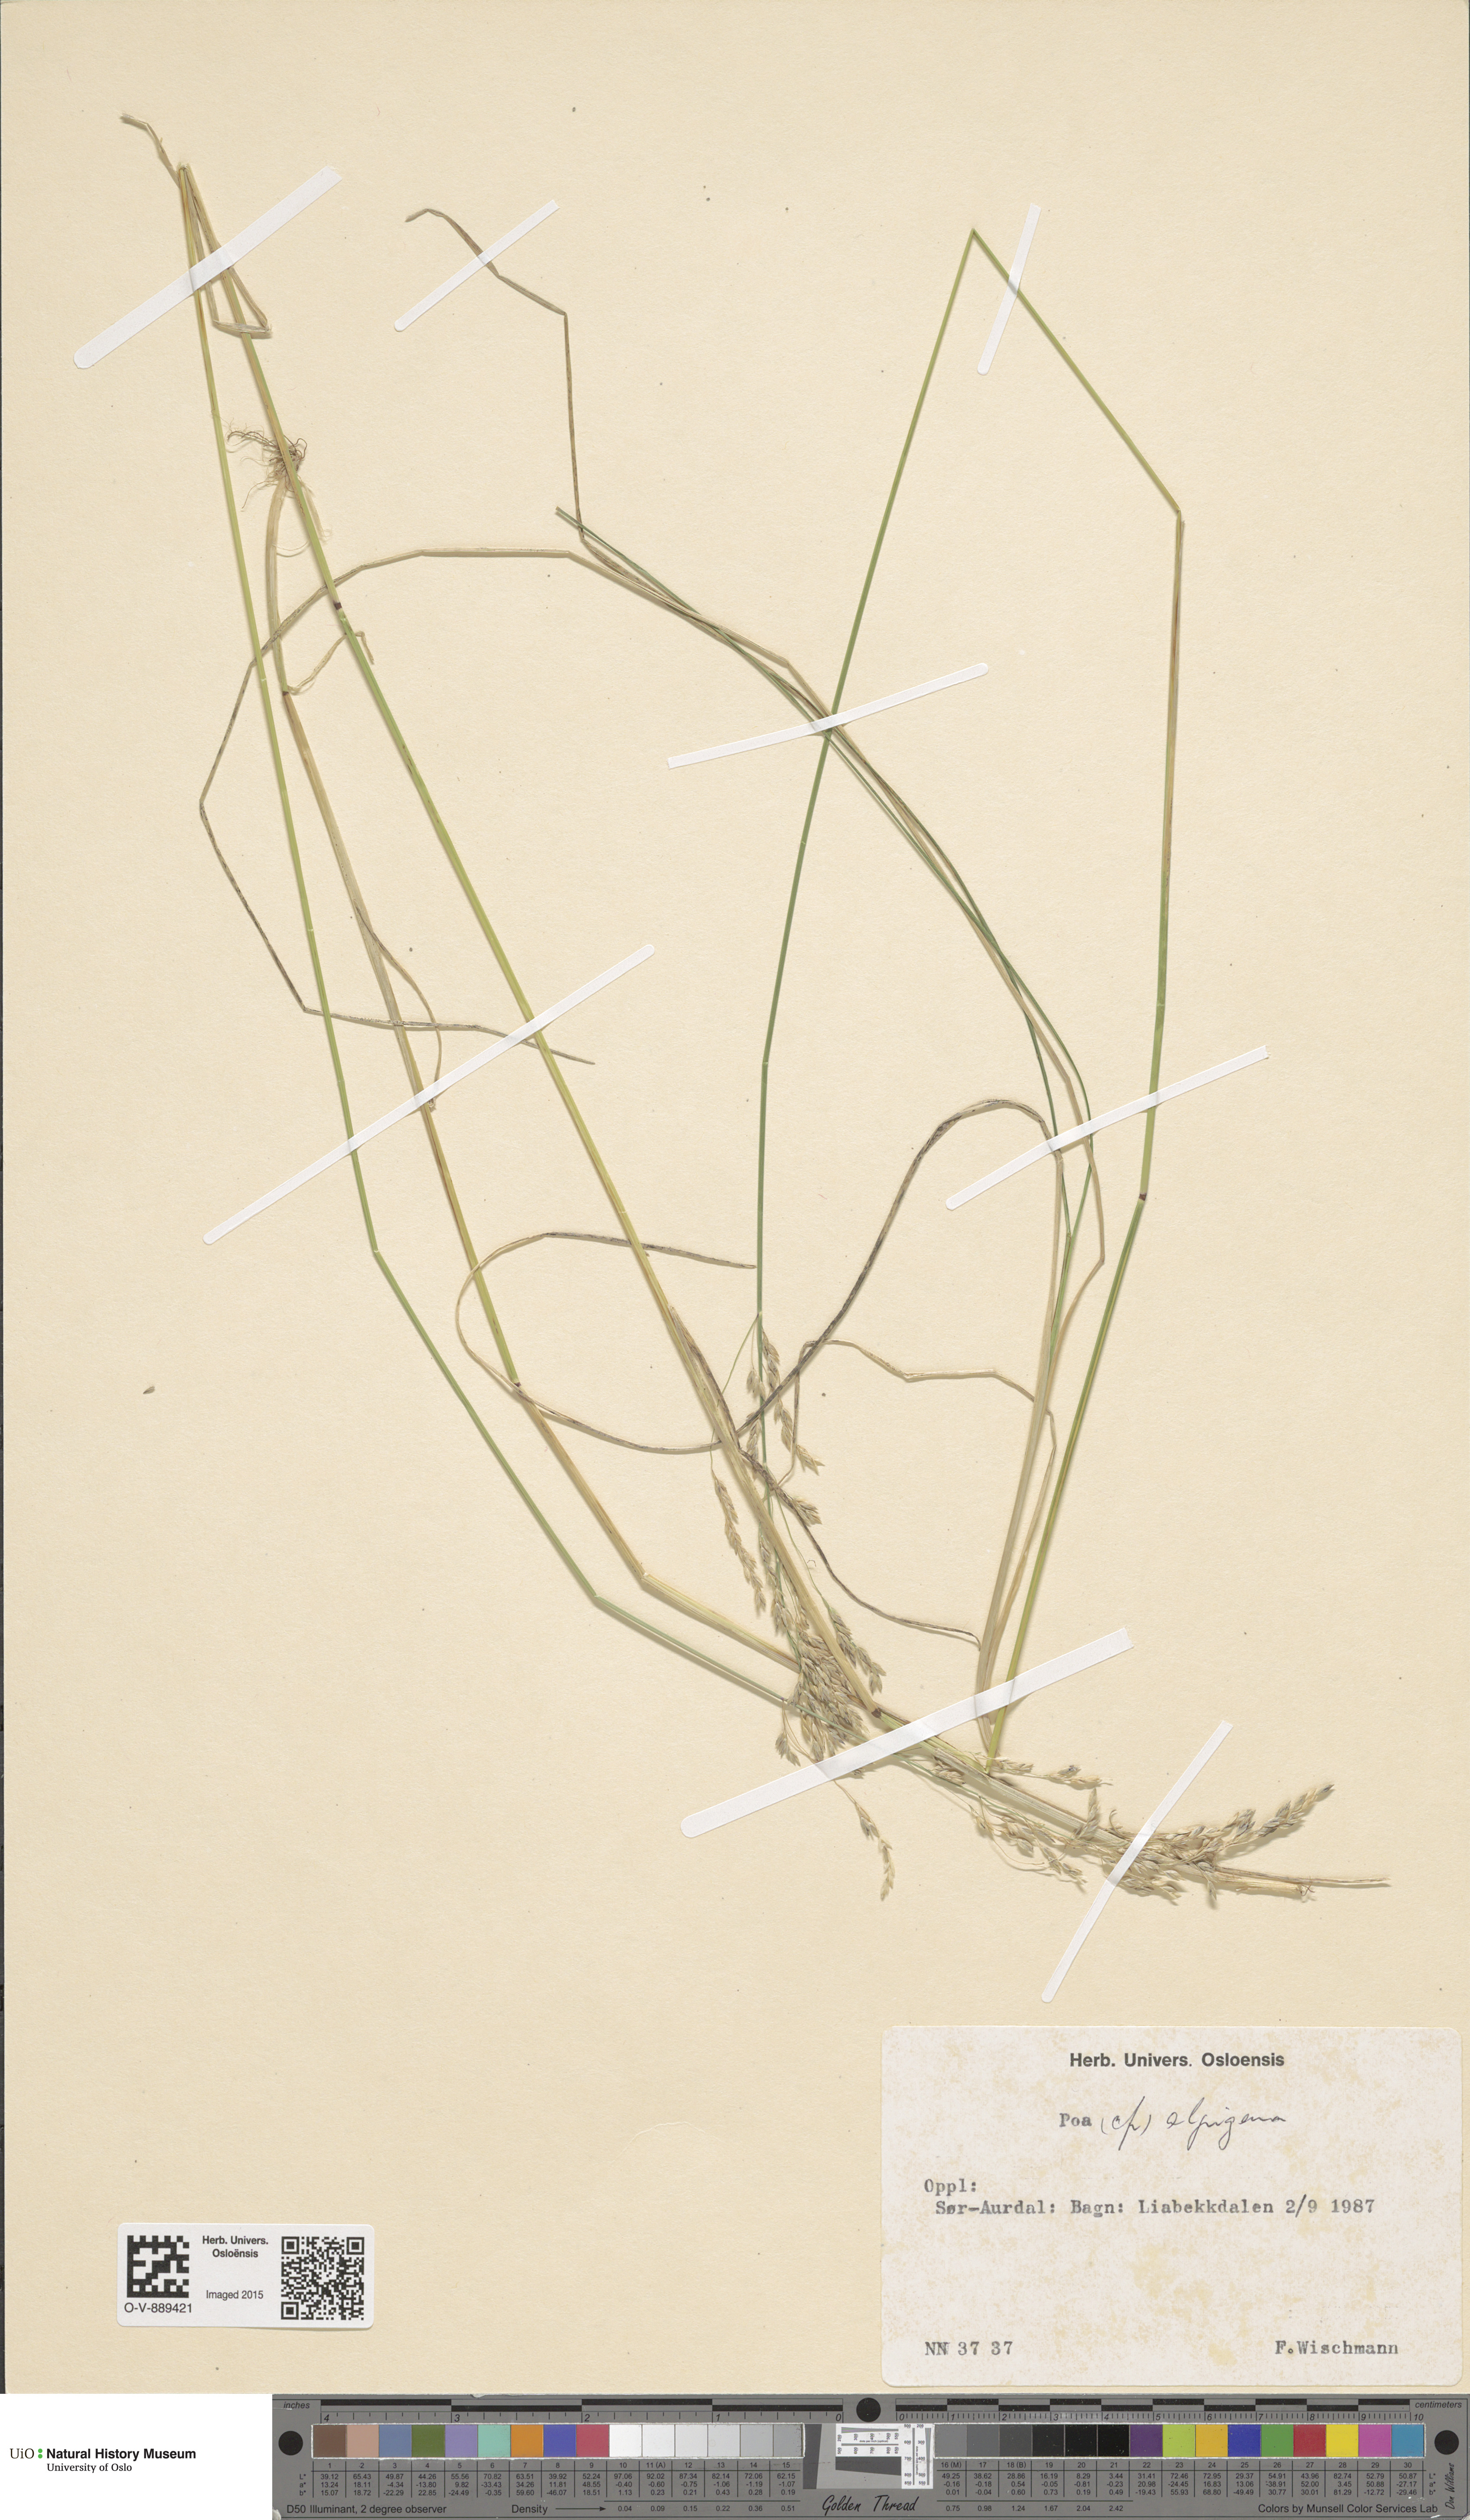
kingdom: Plantae
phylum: Tracheophyta
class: Liliopsida
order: Poales
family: Poaceae
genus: Poa
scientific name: Poa alpigena
